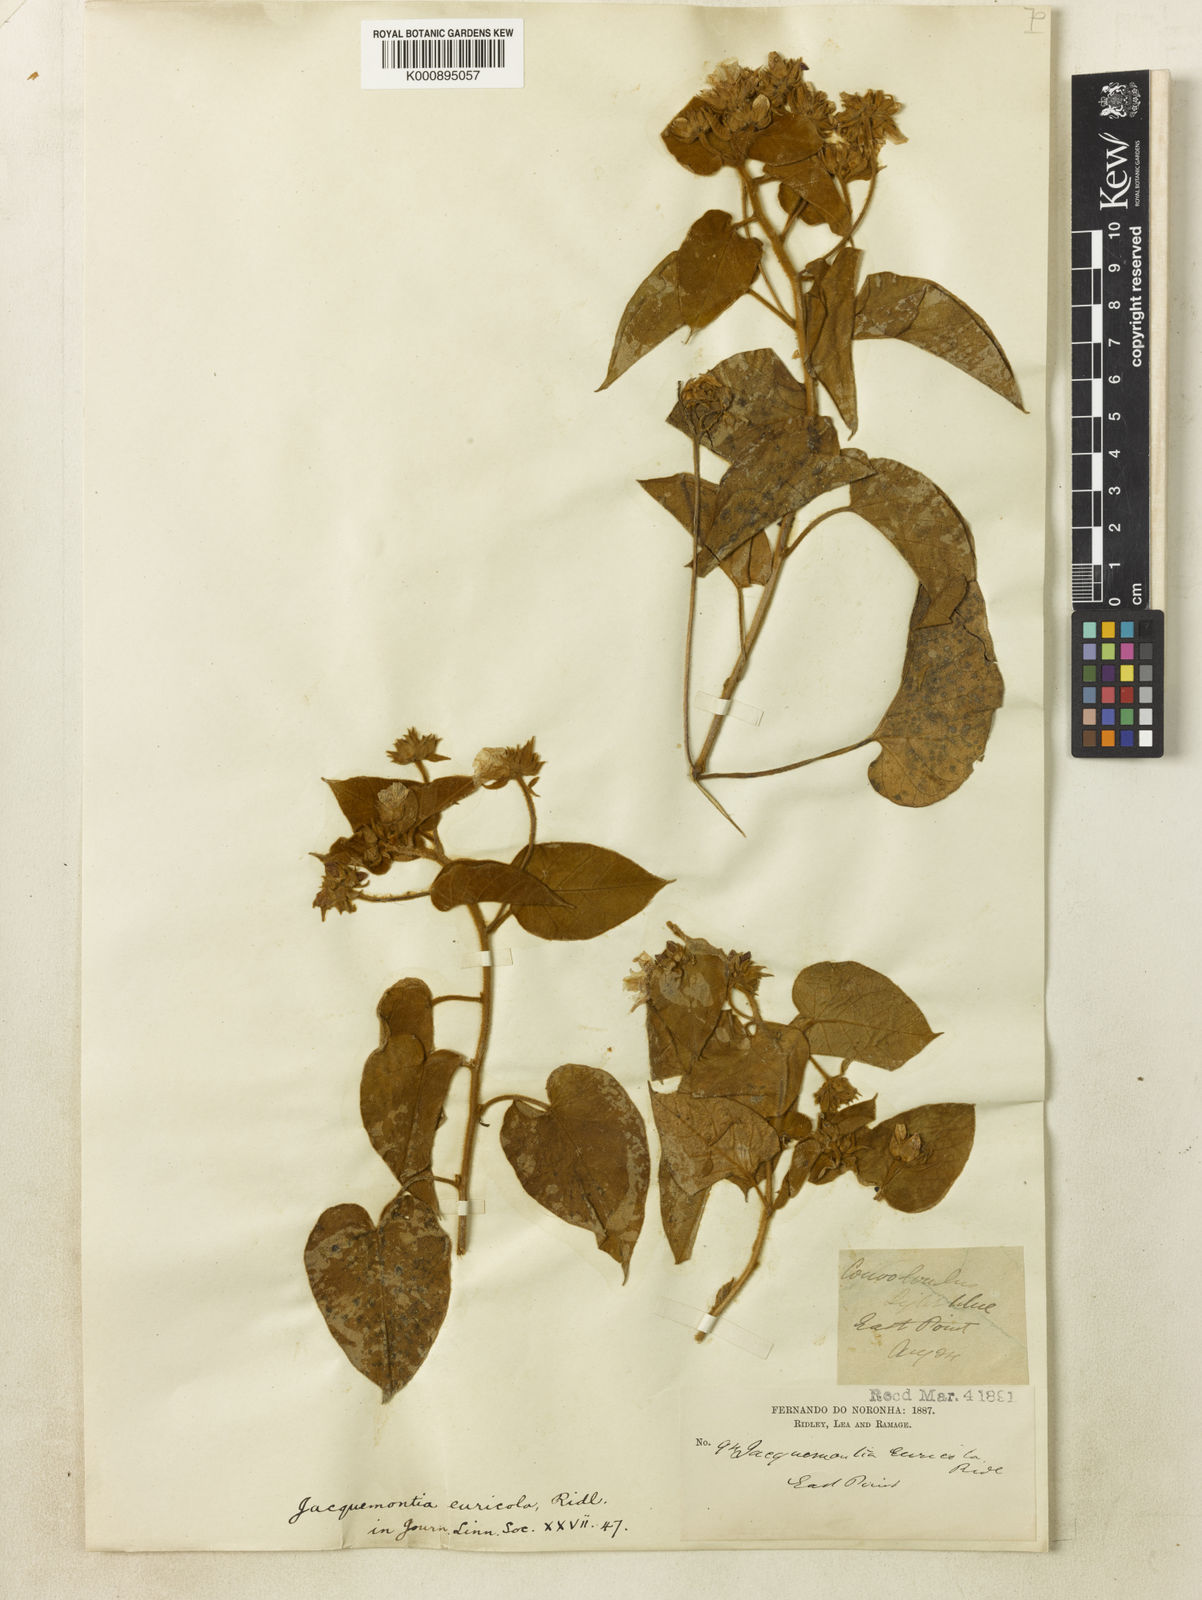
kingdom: Plantae
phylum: Tracheophyta
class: Magnoliopsida
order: Solanales
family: Convolvulaceae
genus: Jacquemontia
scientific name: Jacquemontia euricola
